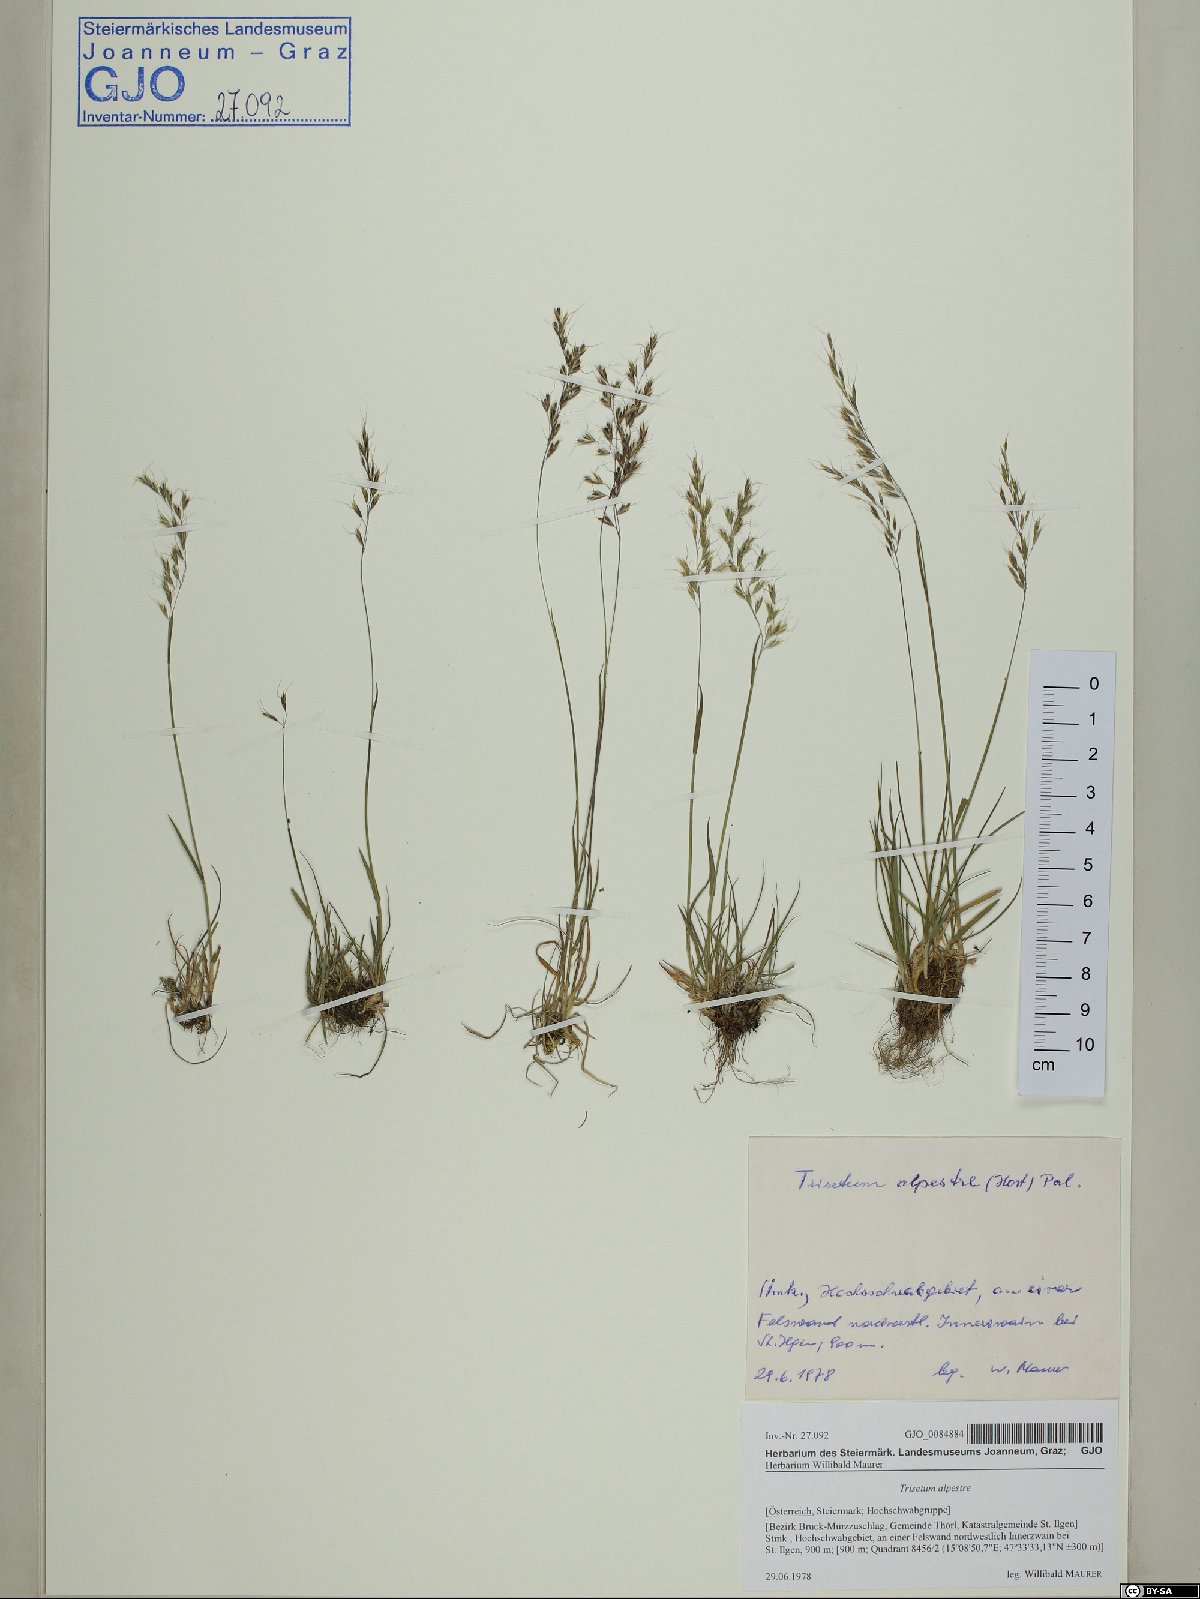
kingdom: Plantae
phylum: Tracheophyta
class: Liliopsida
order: Poales
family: Poaceae
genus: Trisetum
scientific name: Trisetum alpestre
